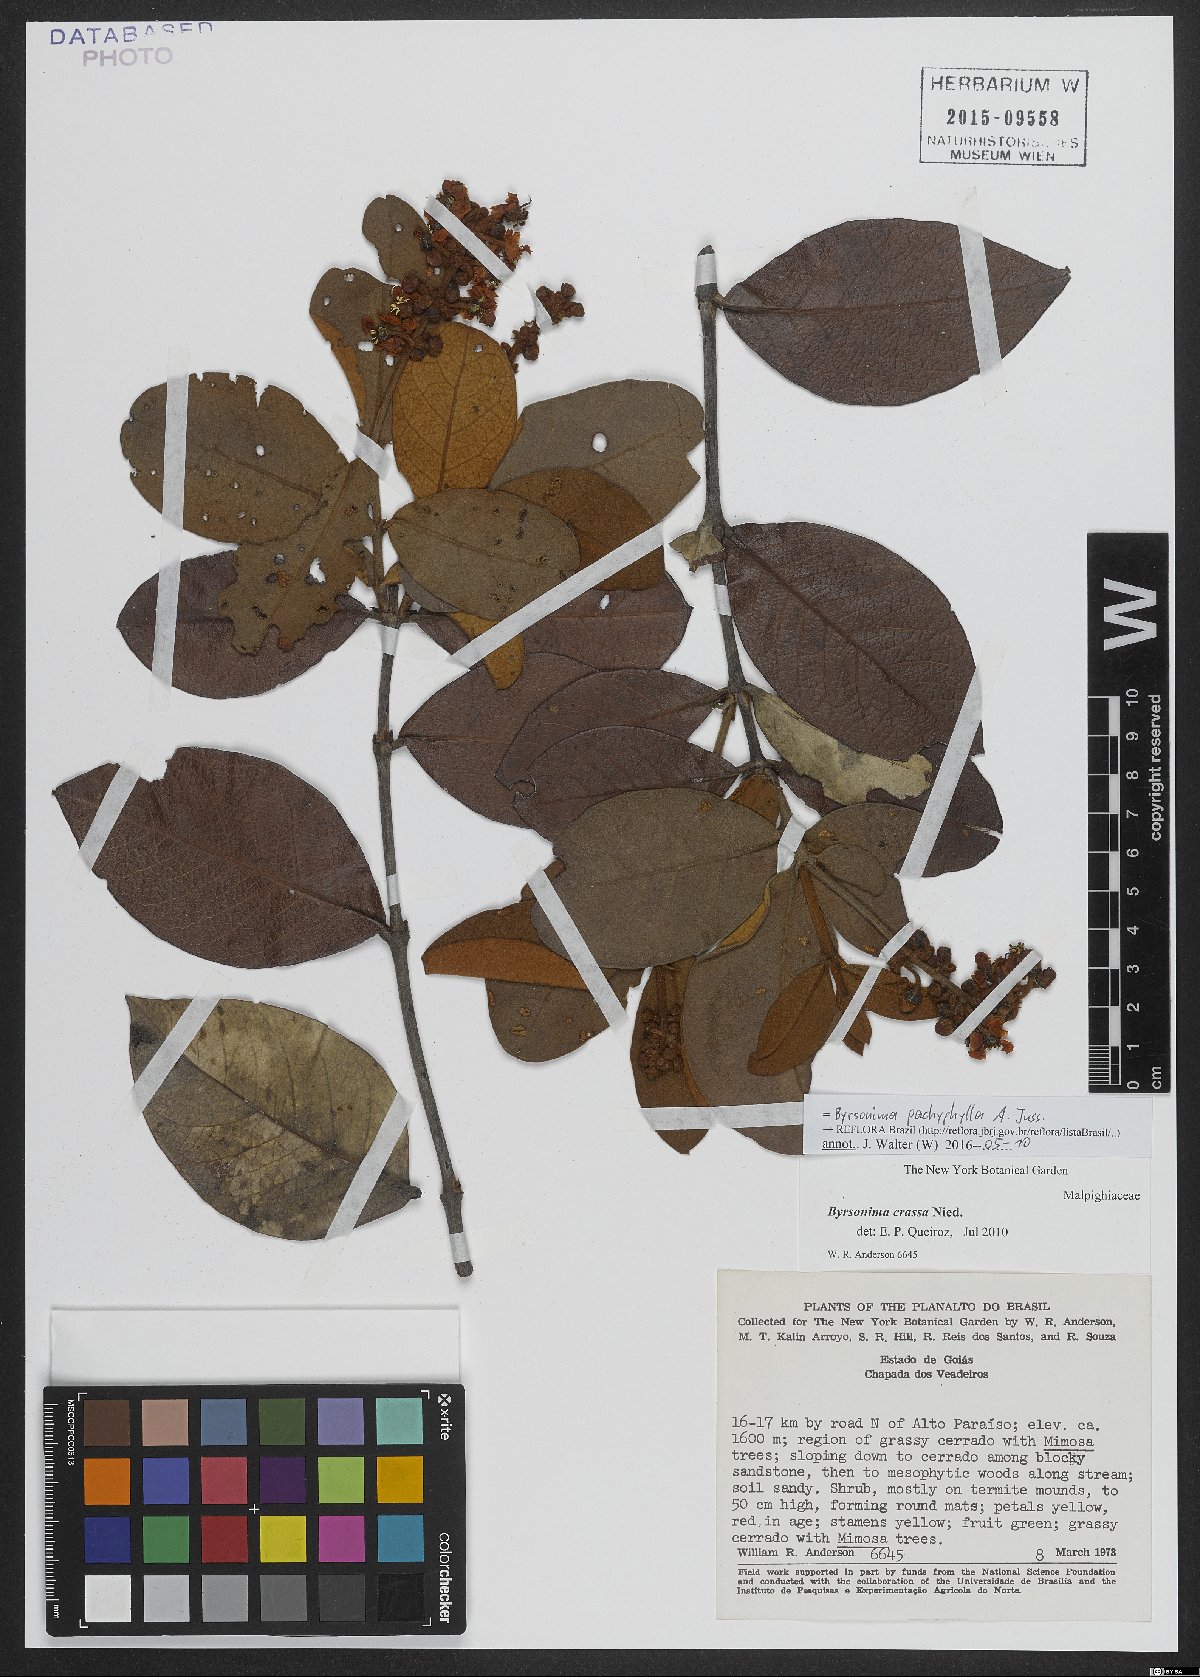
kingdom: Plantae
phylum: Tracheophyta
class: Magnoliopsida
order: Malpighiales
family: Malpighiaceae
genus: Byrsonima
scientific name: Byrsonima pachyphylla
